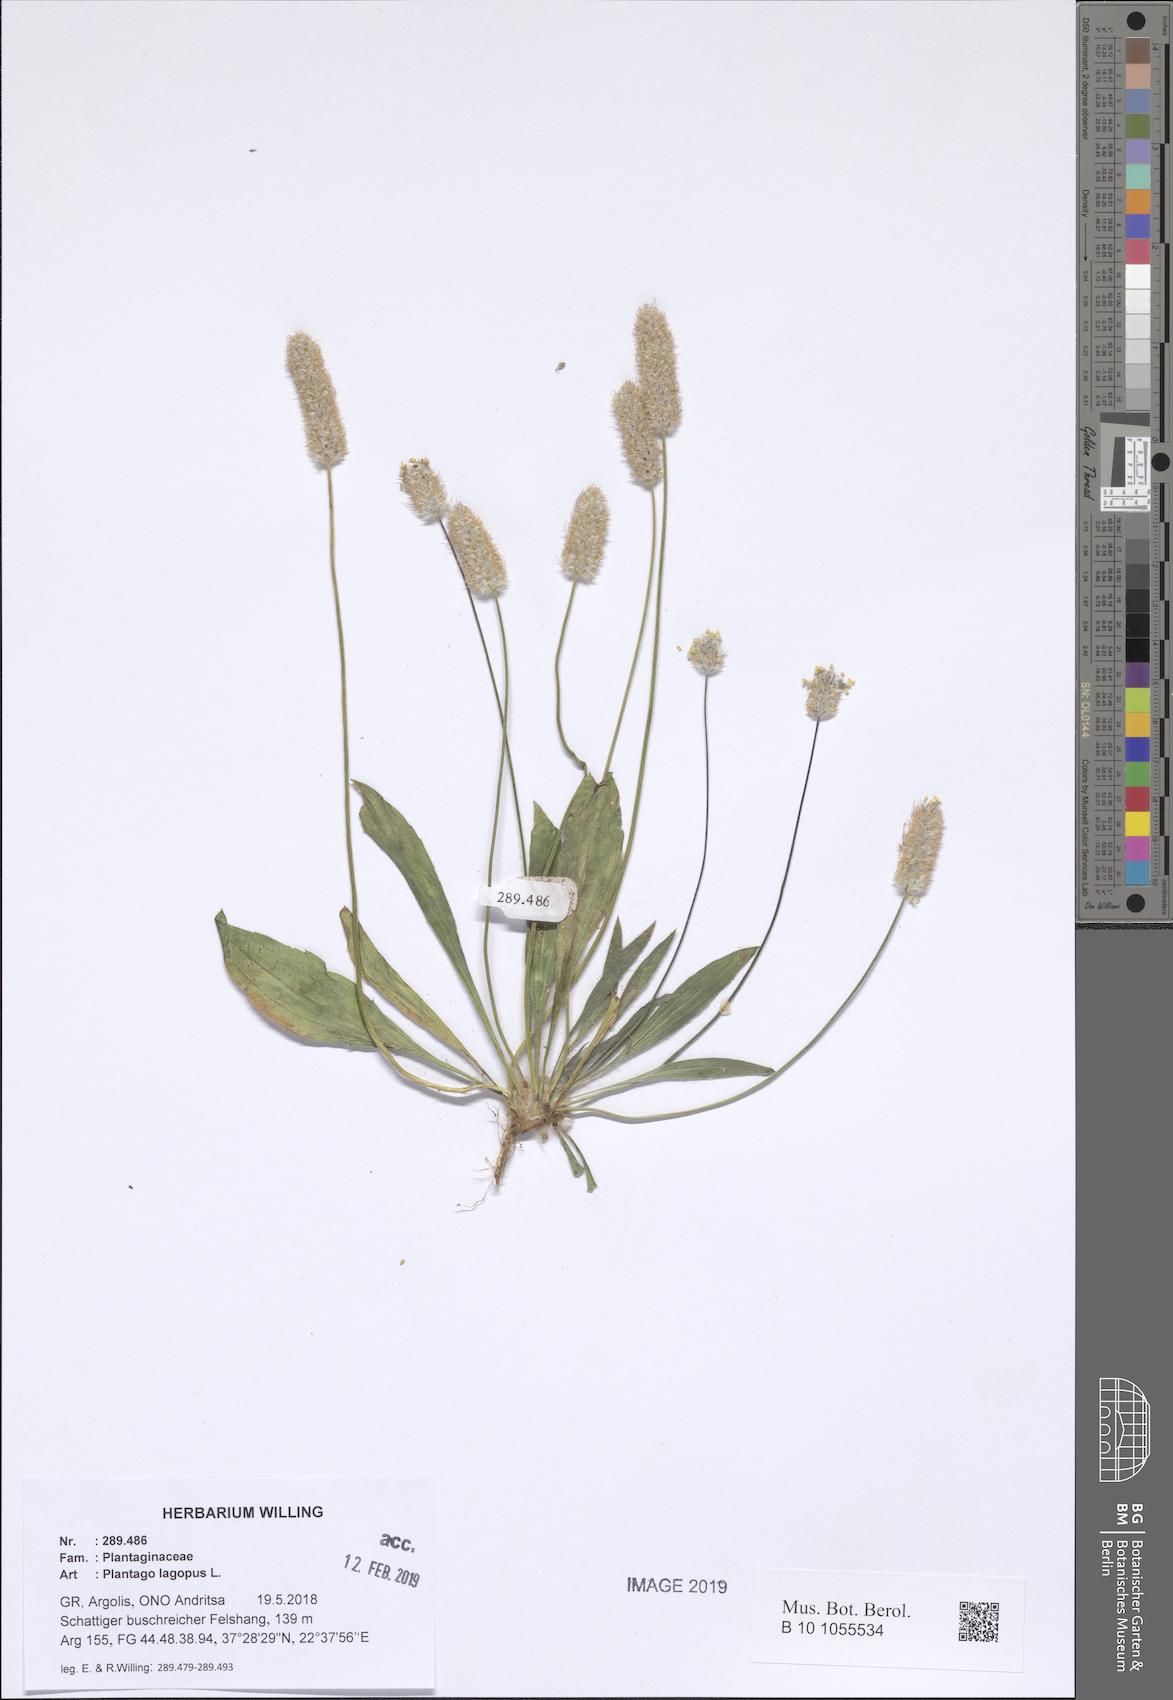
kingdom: Plantae
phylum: Tracheophyta
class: Magnoliopsida
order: Lamiales
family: Plantaginaceae
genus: Plantago
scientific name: Plantago lagopus
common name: Hare-foot plantain
